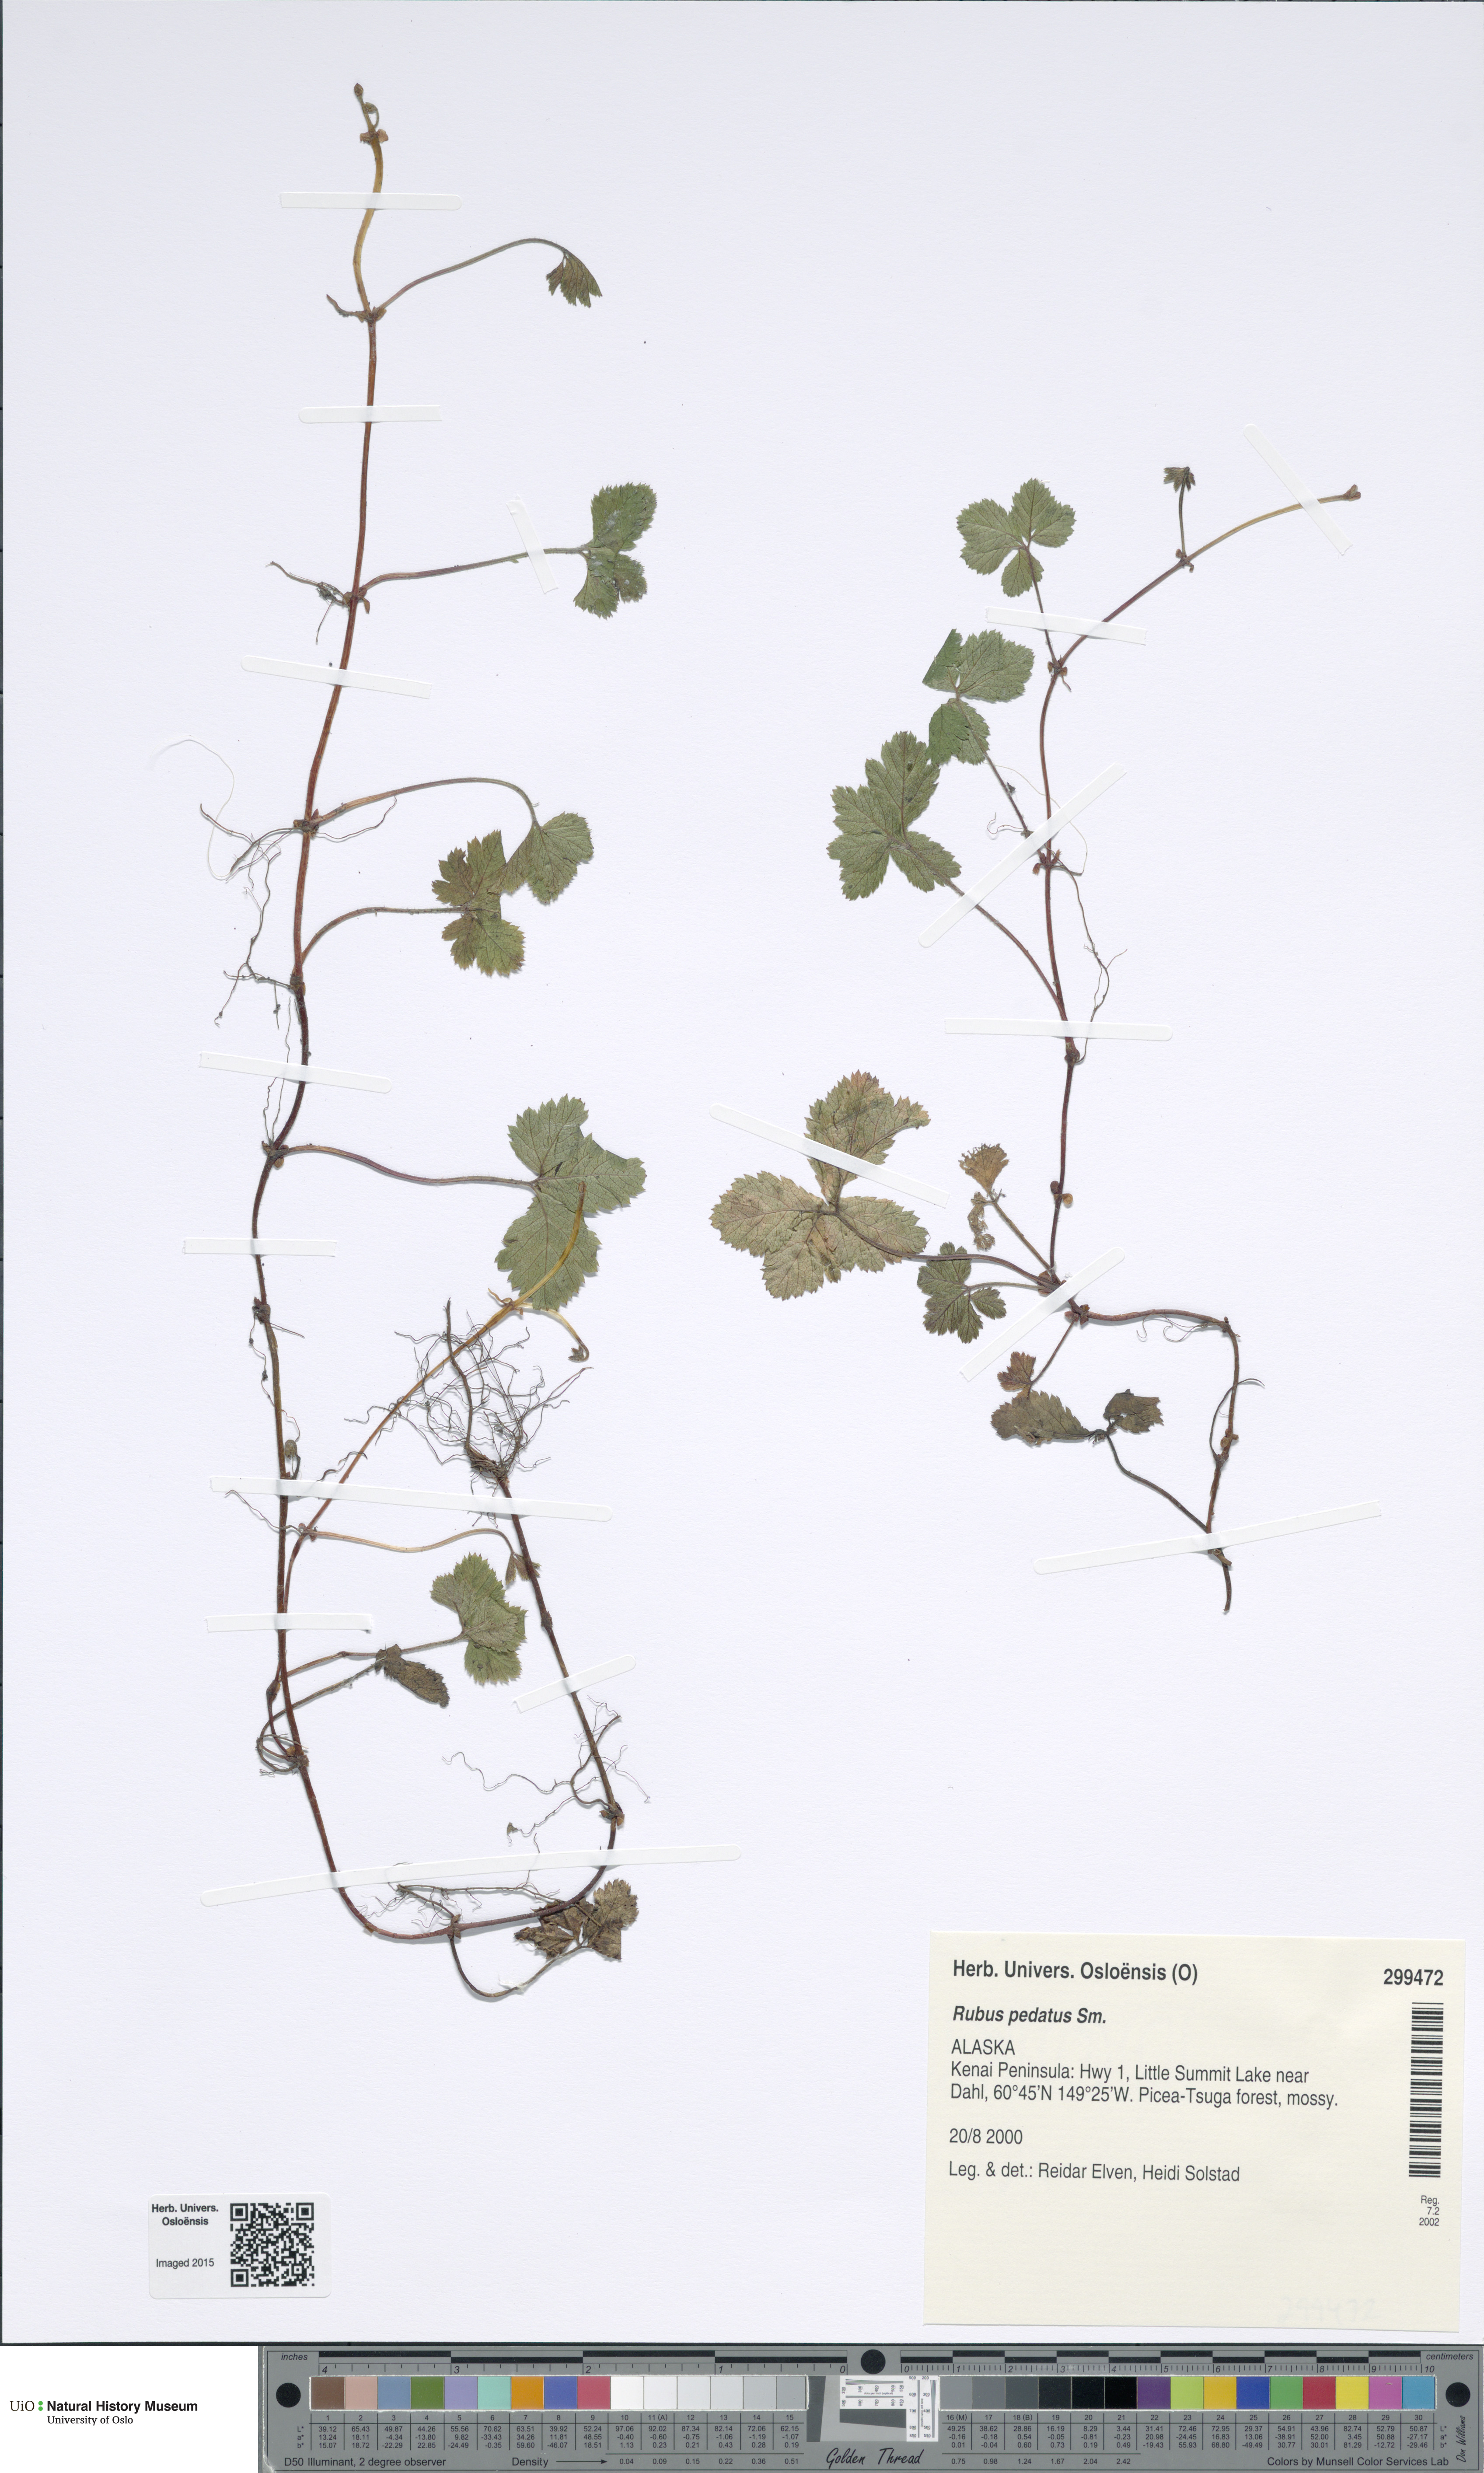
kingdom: Plantae
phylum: Tracheophyta
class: Magnoliopsida
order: Rosales
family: Rosaceae
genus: Rubus
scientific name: Rubus pedatus
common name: Creeping raspberry
